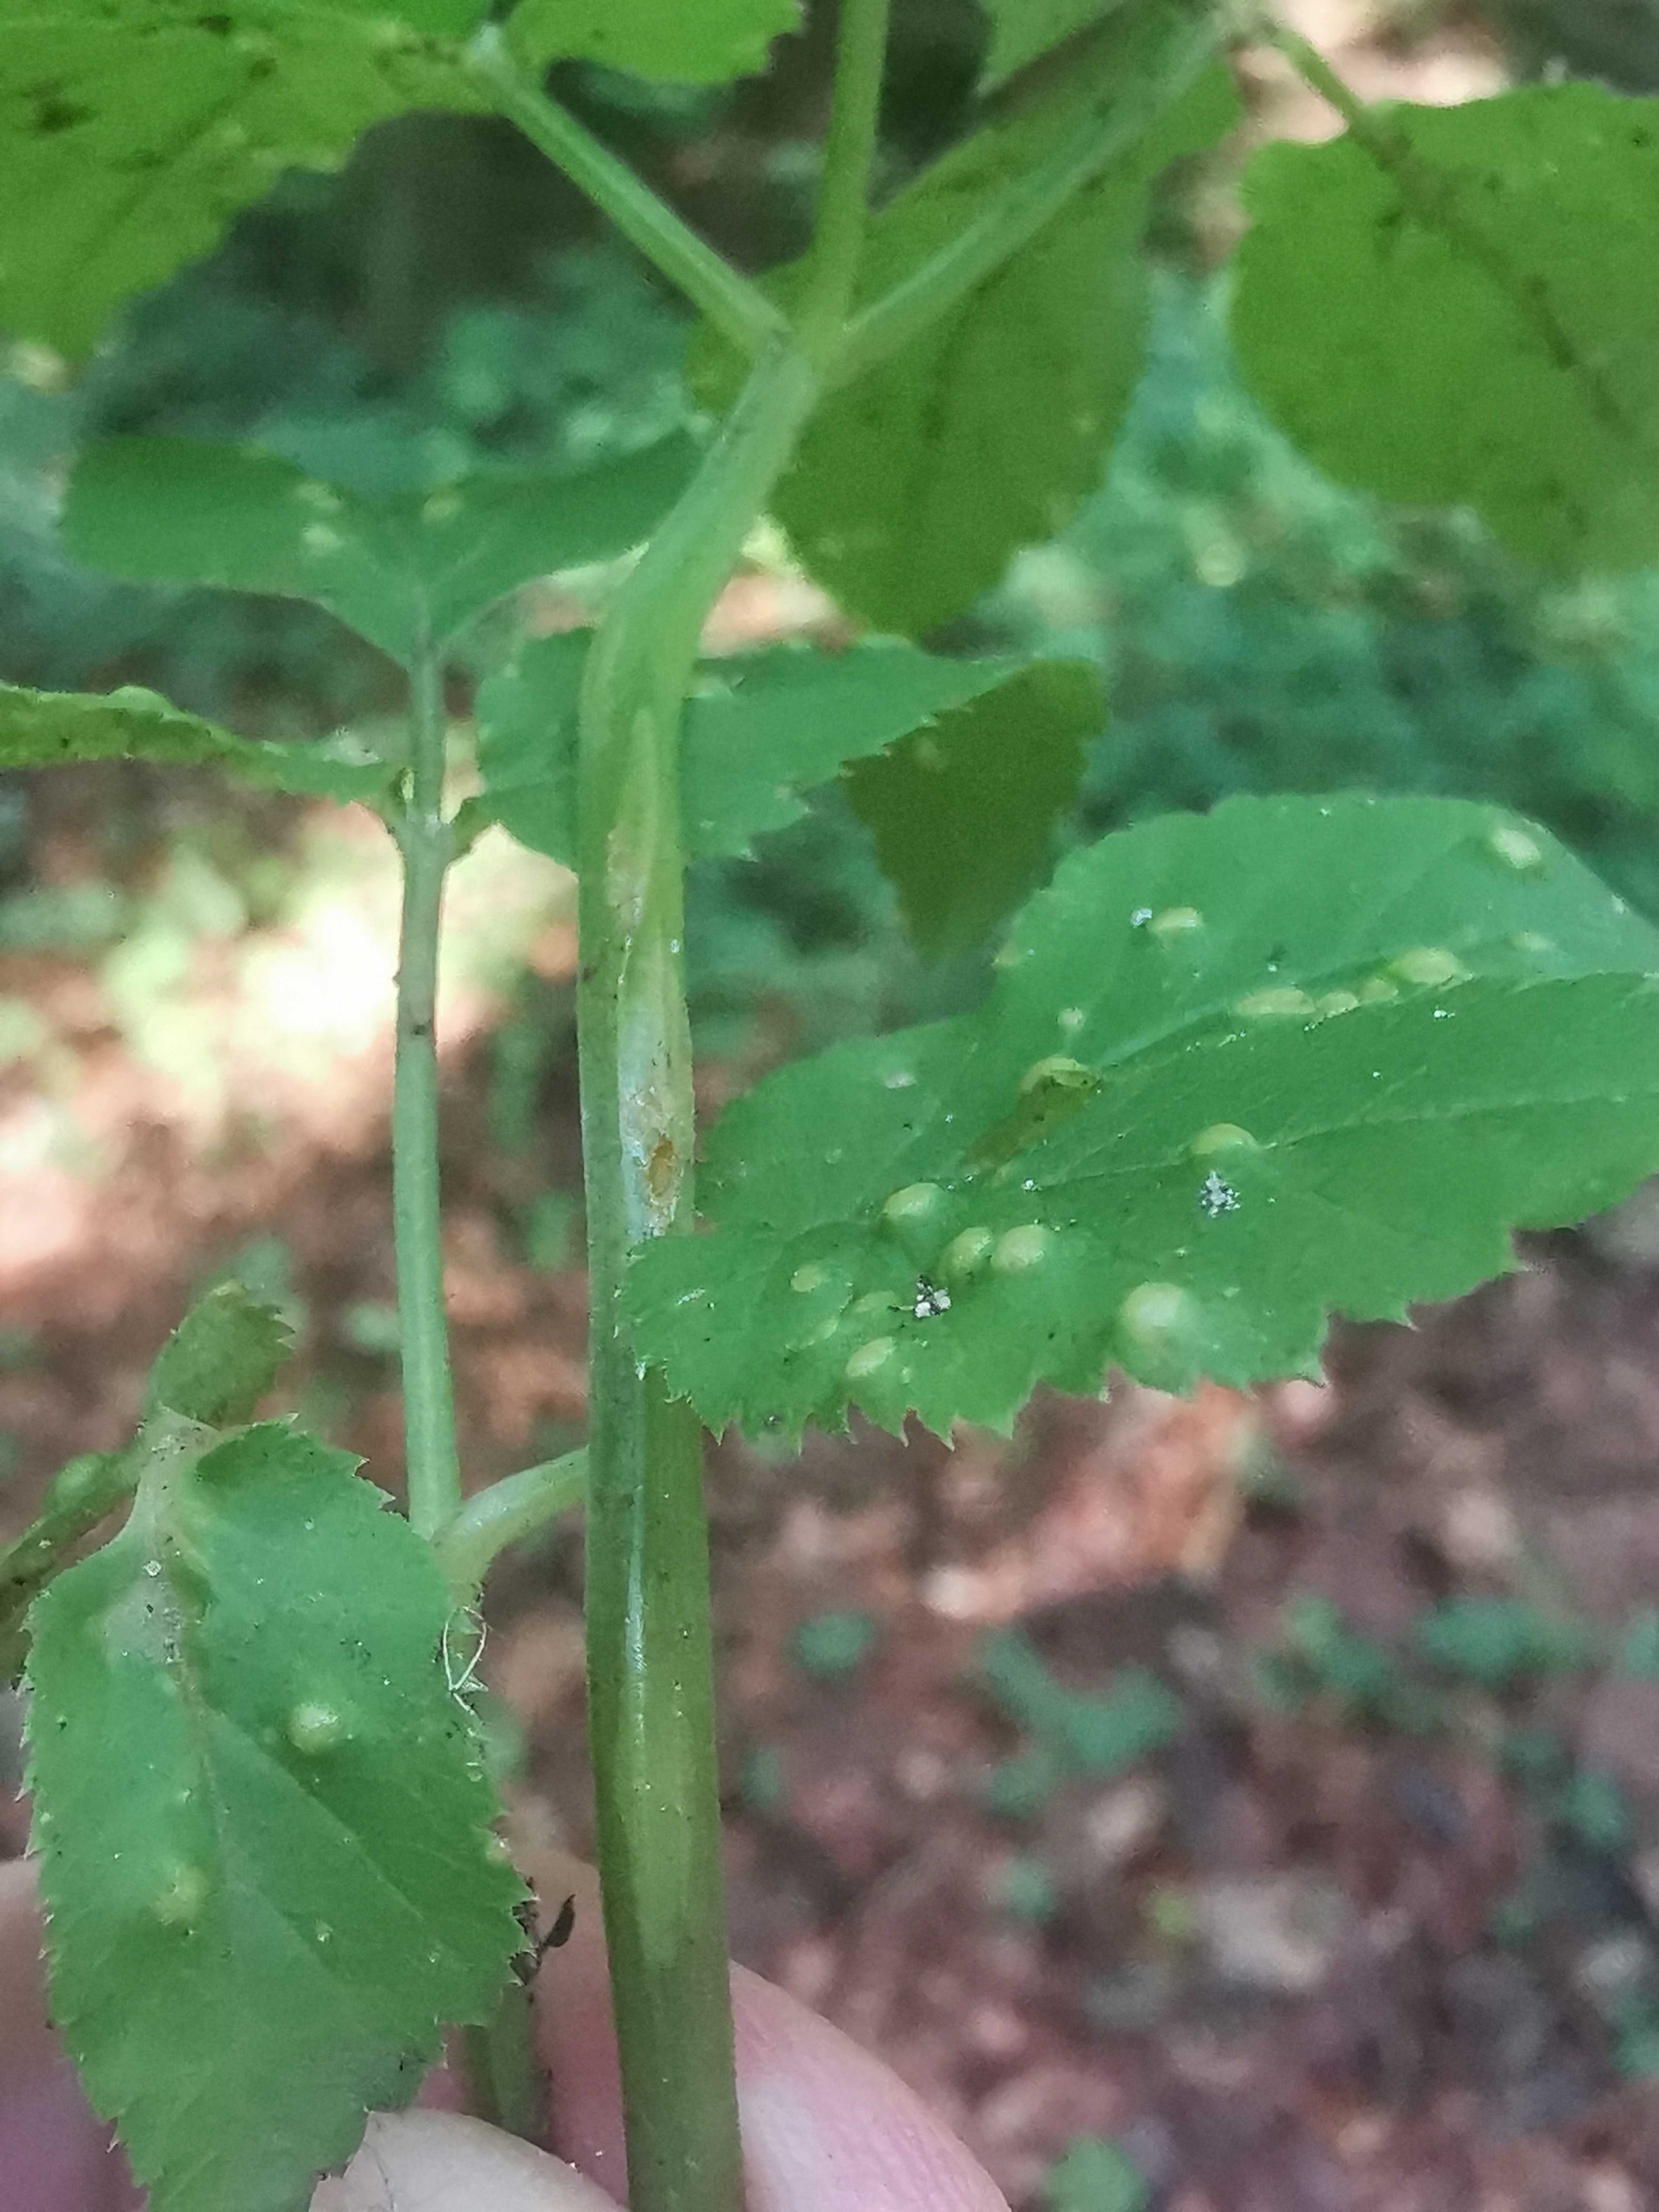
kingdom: Fungi
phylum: Ascomycota
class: Taphrinomycetes
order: Taphrinales
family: Taphrinaceae
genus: Protomyces
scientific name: Protomyces macrosporus
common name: skvalderkål-vablesæk
